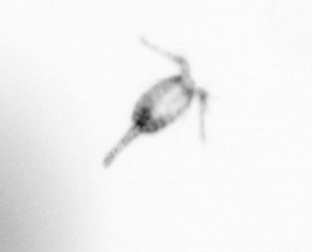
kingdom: Animalia
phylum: Arthropoda
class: Copepoda
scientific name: Copepoda
